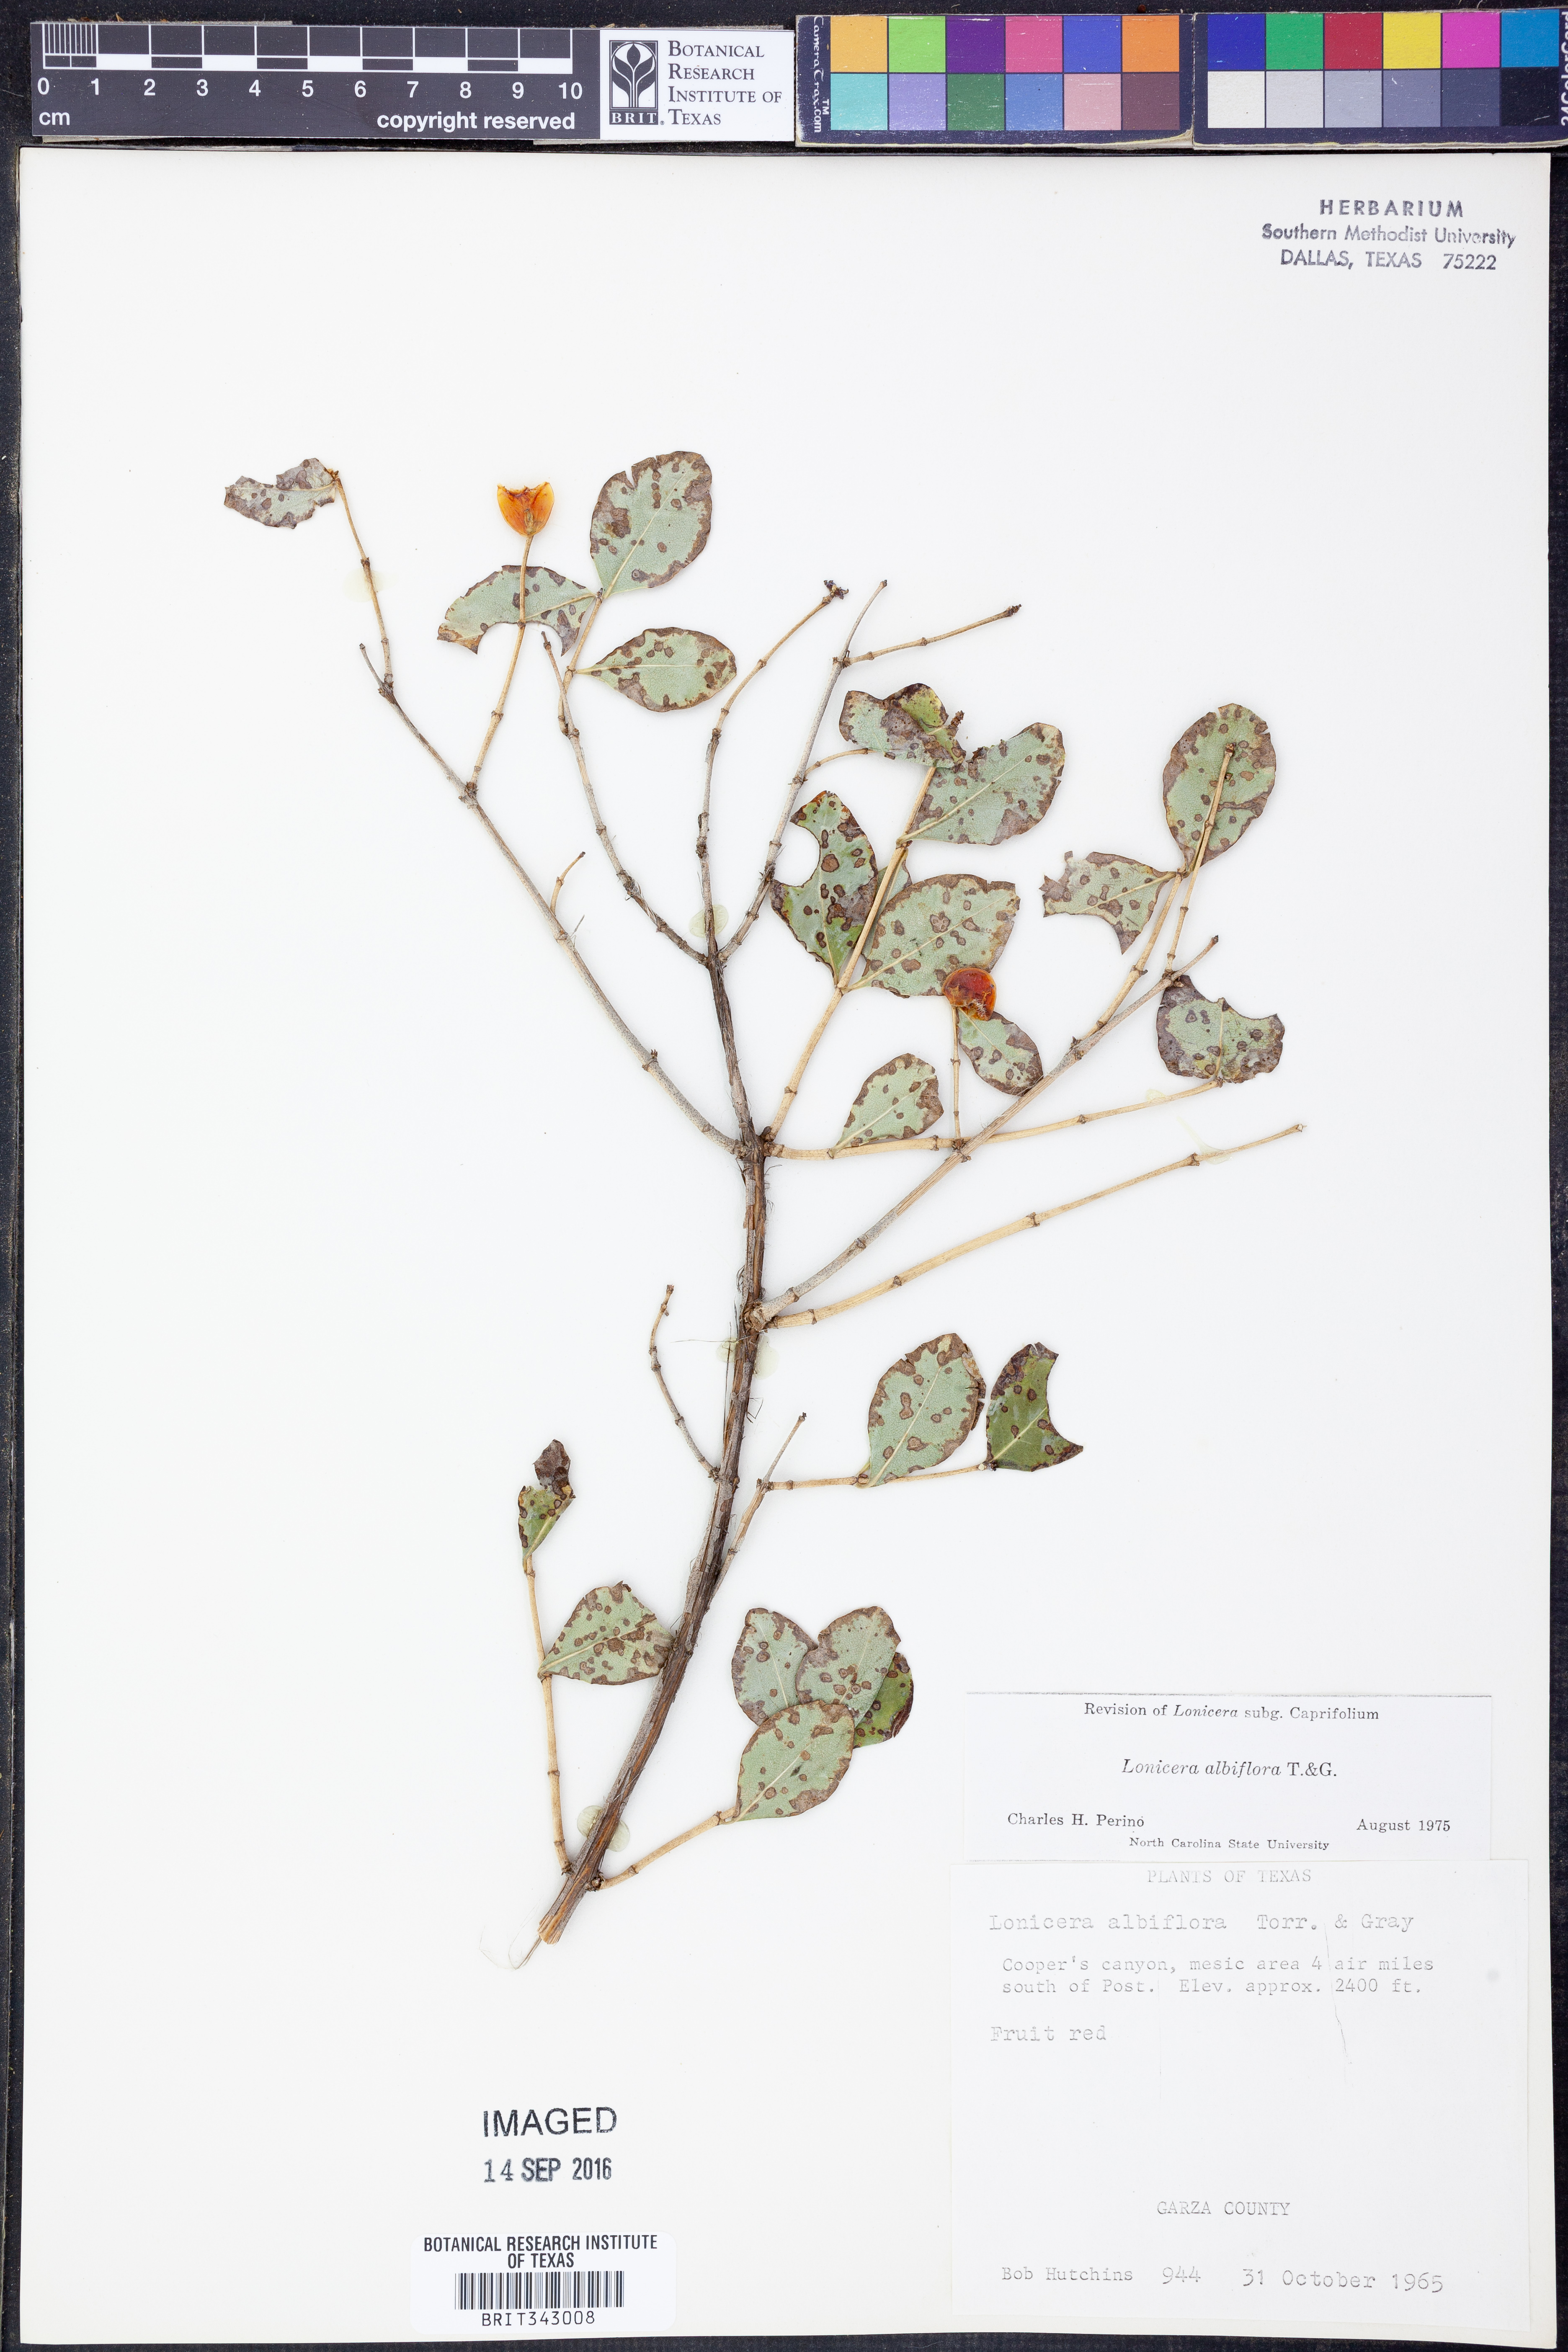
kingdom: Plantae
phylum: Tracheophyta
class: Magnoliopsida
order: Dipsacales
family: Caprifoliaceae
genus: Lonicera
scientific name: Lonicera albiflora
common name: White honeysuckle
